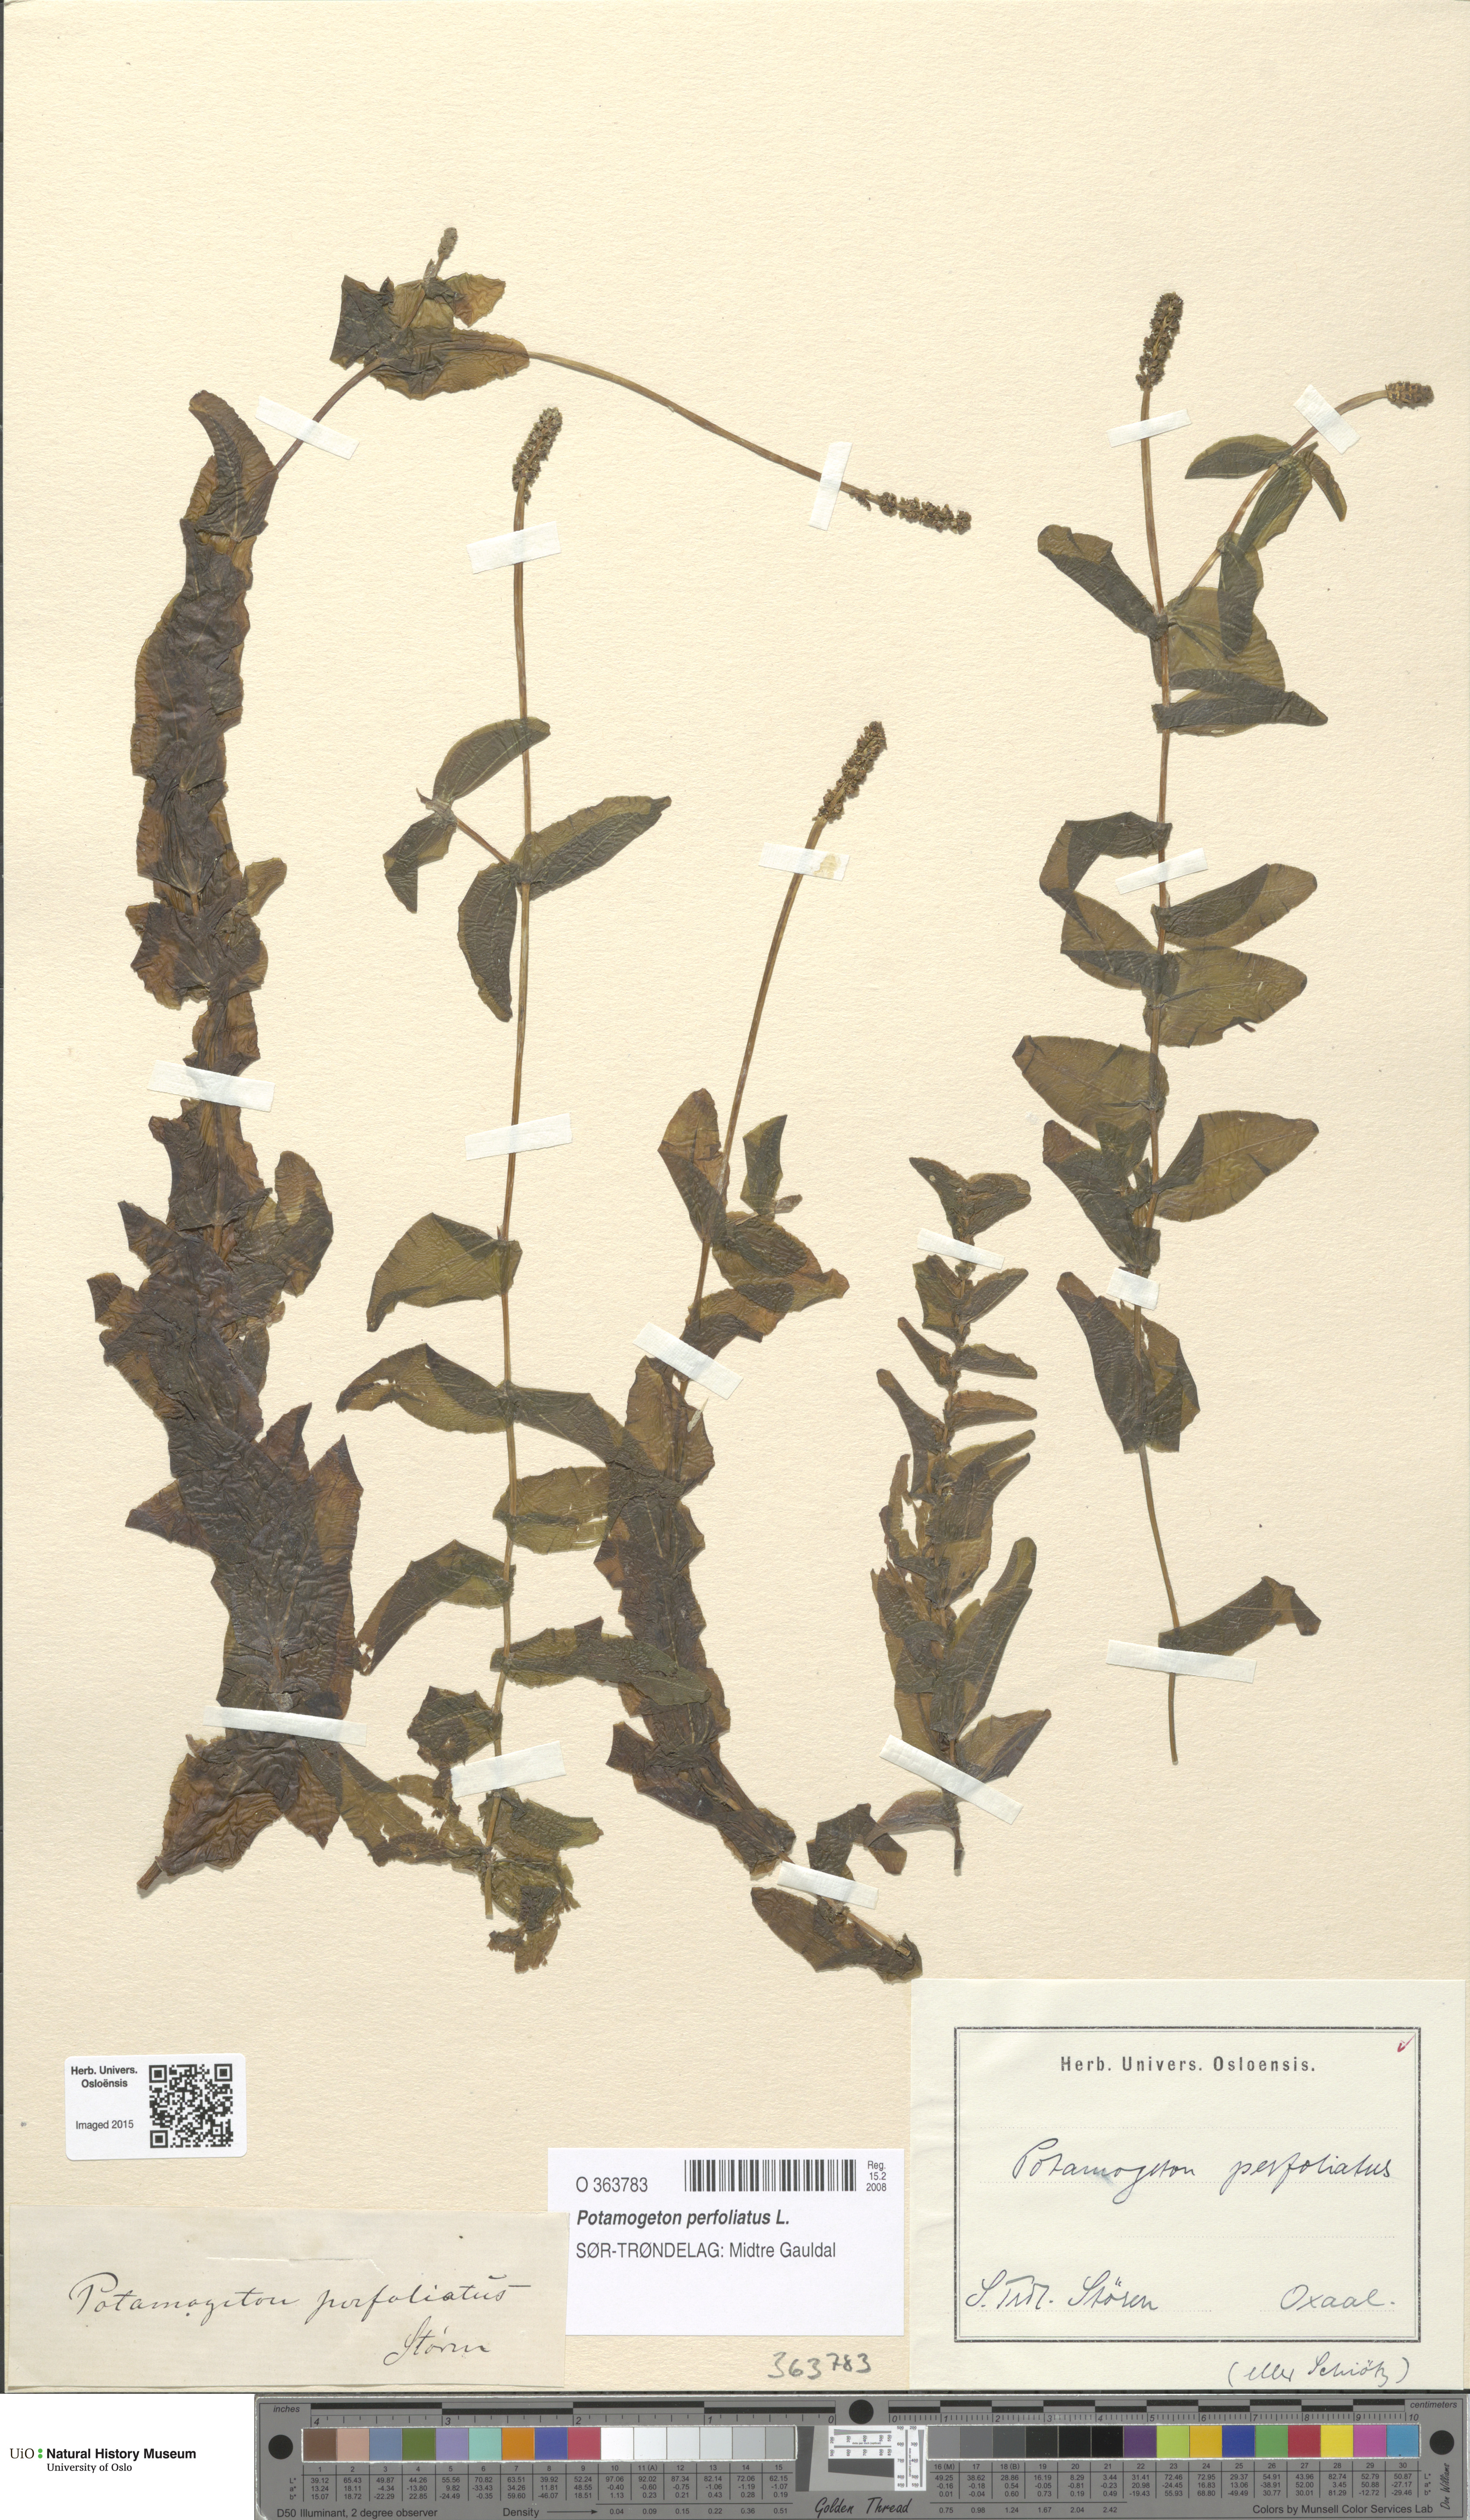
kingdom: Plantae
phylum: Tracheophyta
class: Liliopsida
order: Alismatales
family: Potamogetonaceae
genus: Potamogeton
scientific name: Potamogeton perfoliatus
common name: Perfoliate pondweed
